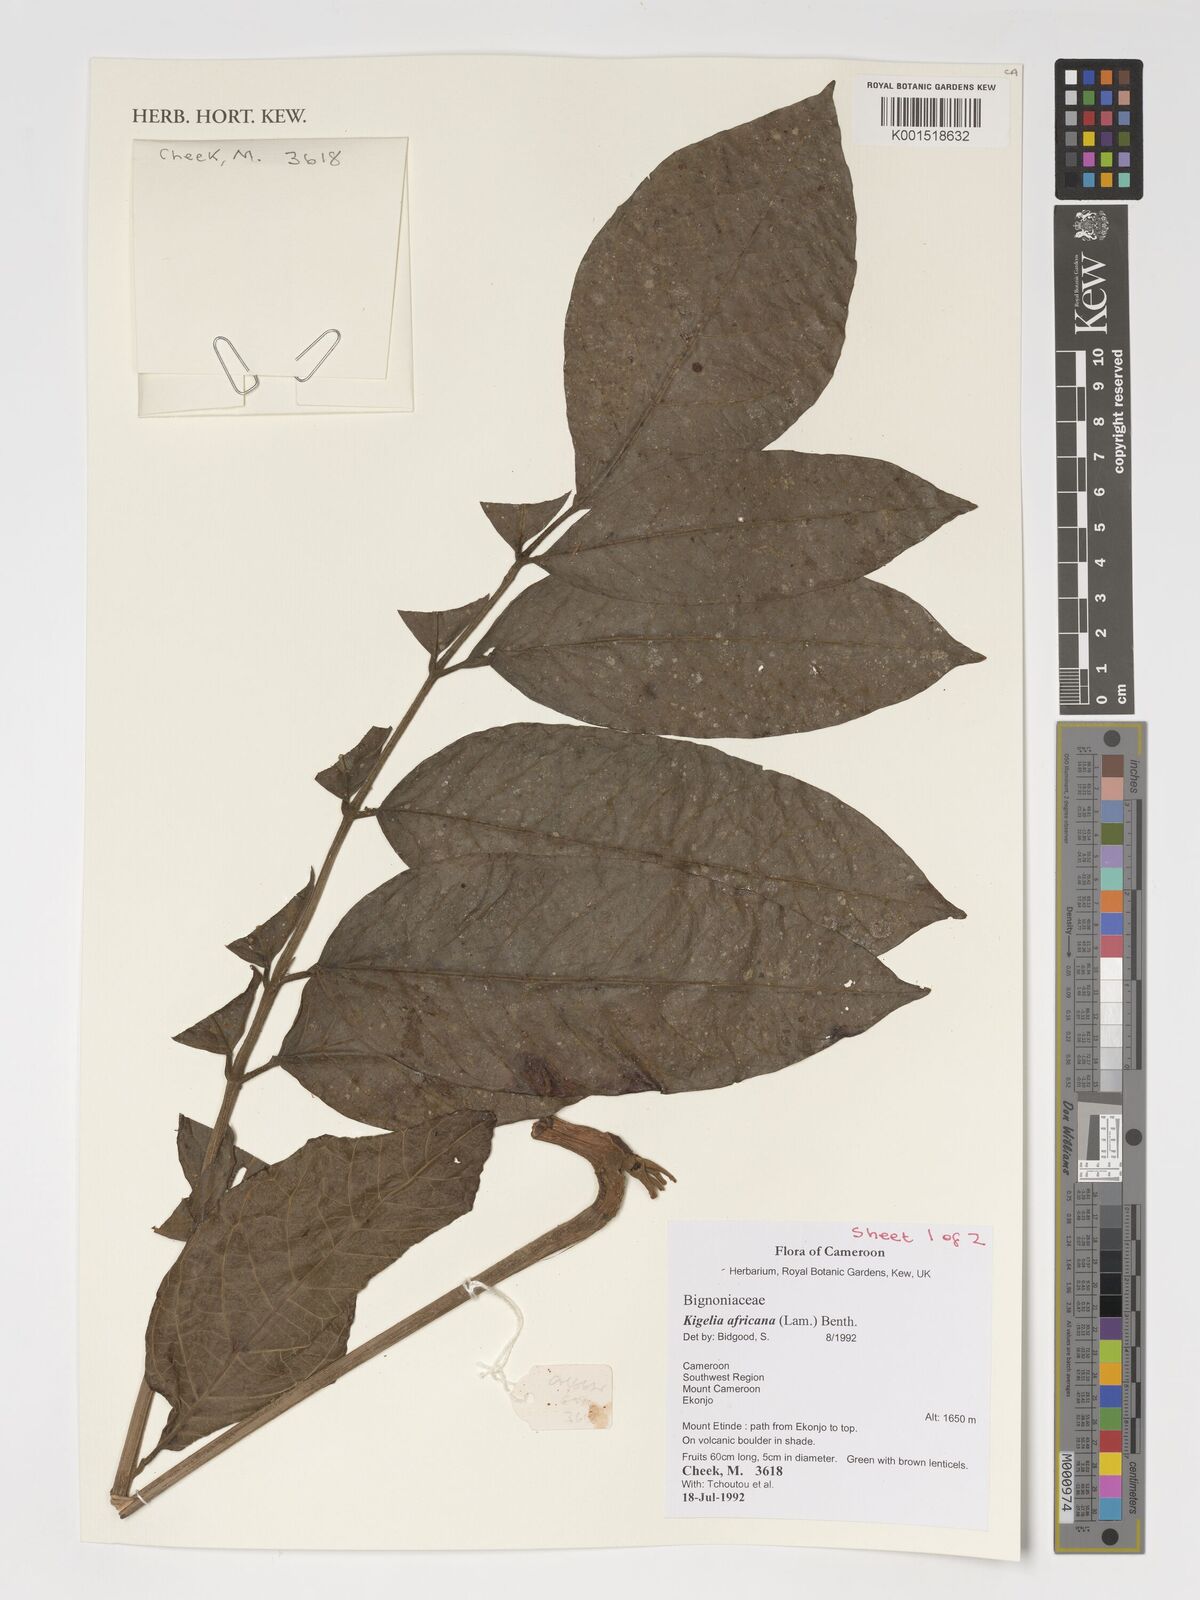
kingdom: Plantae
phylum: Tracheophyta
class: Magnoliopsida
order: Lamiales
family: Bignoniaceae
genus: Kigelia
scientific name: Kigelia africana
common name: Sausage tree
